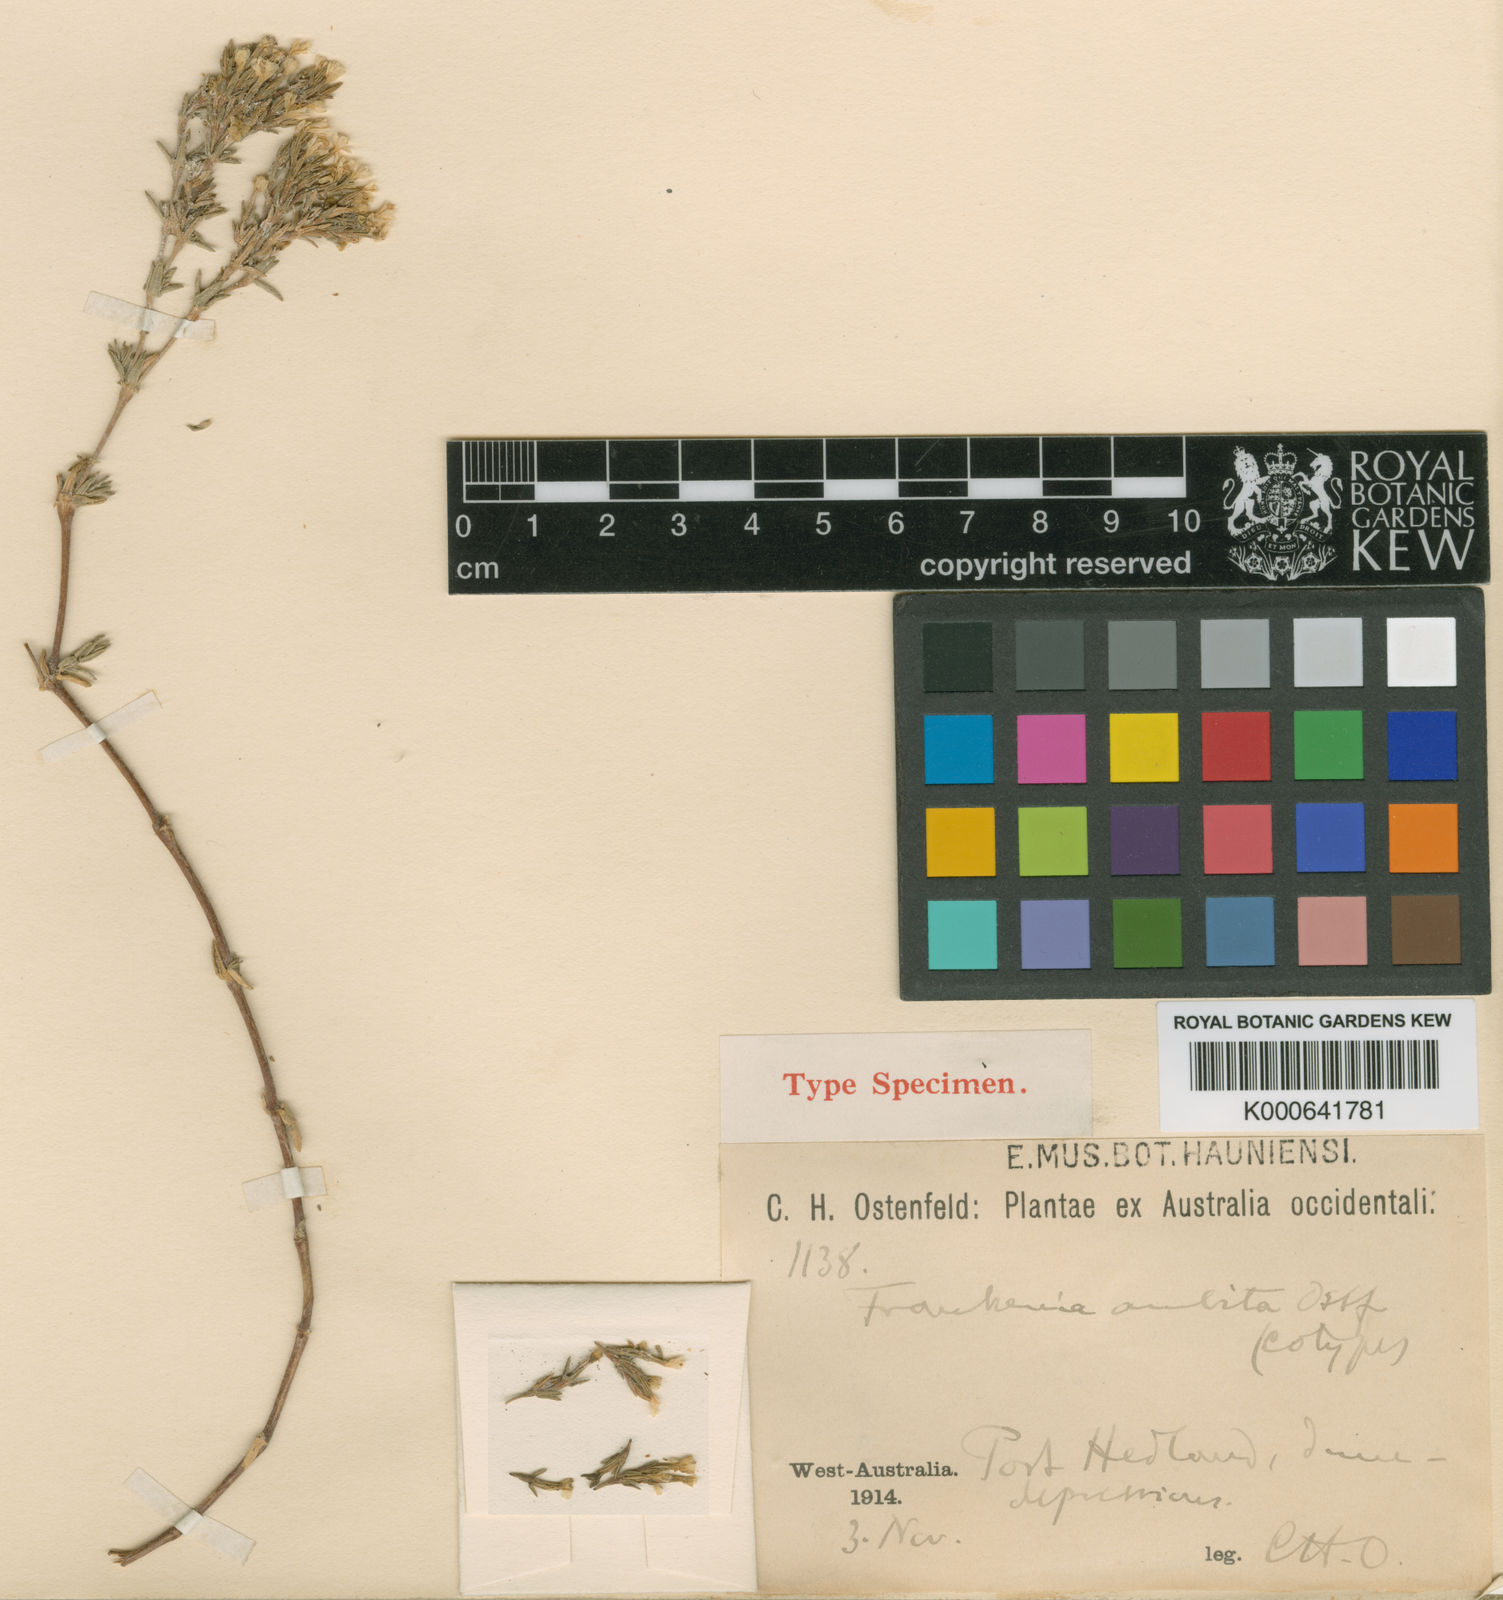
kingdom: Plantae
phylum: Tracheophyta
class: Magnoliopsida
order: Caryophyllales
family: Frankeniaceae
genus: Frankenia
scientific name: Frankenia ambita
